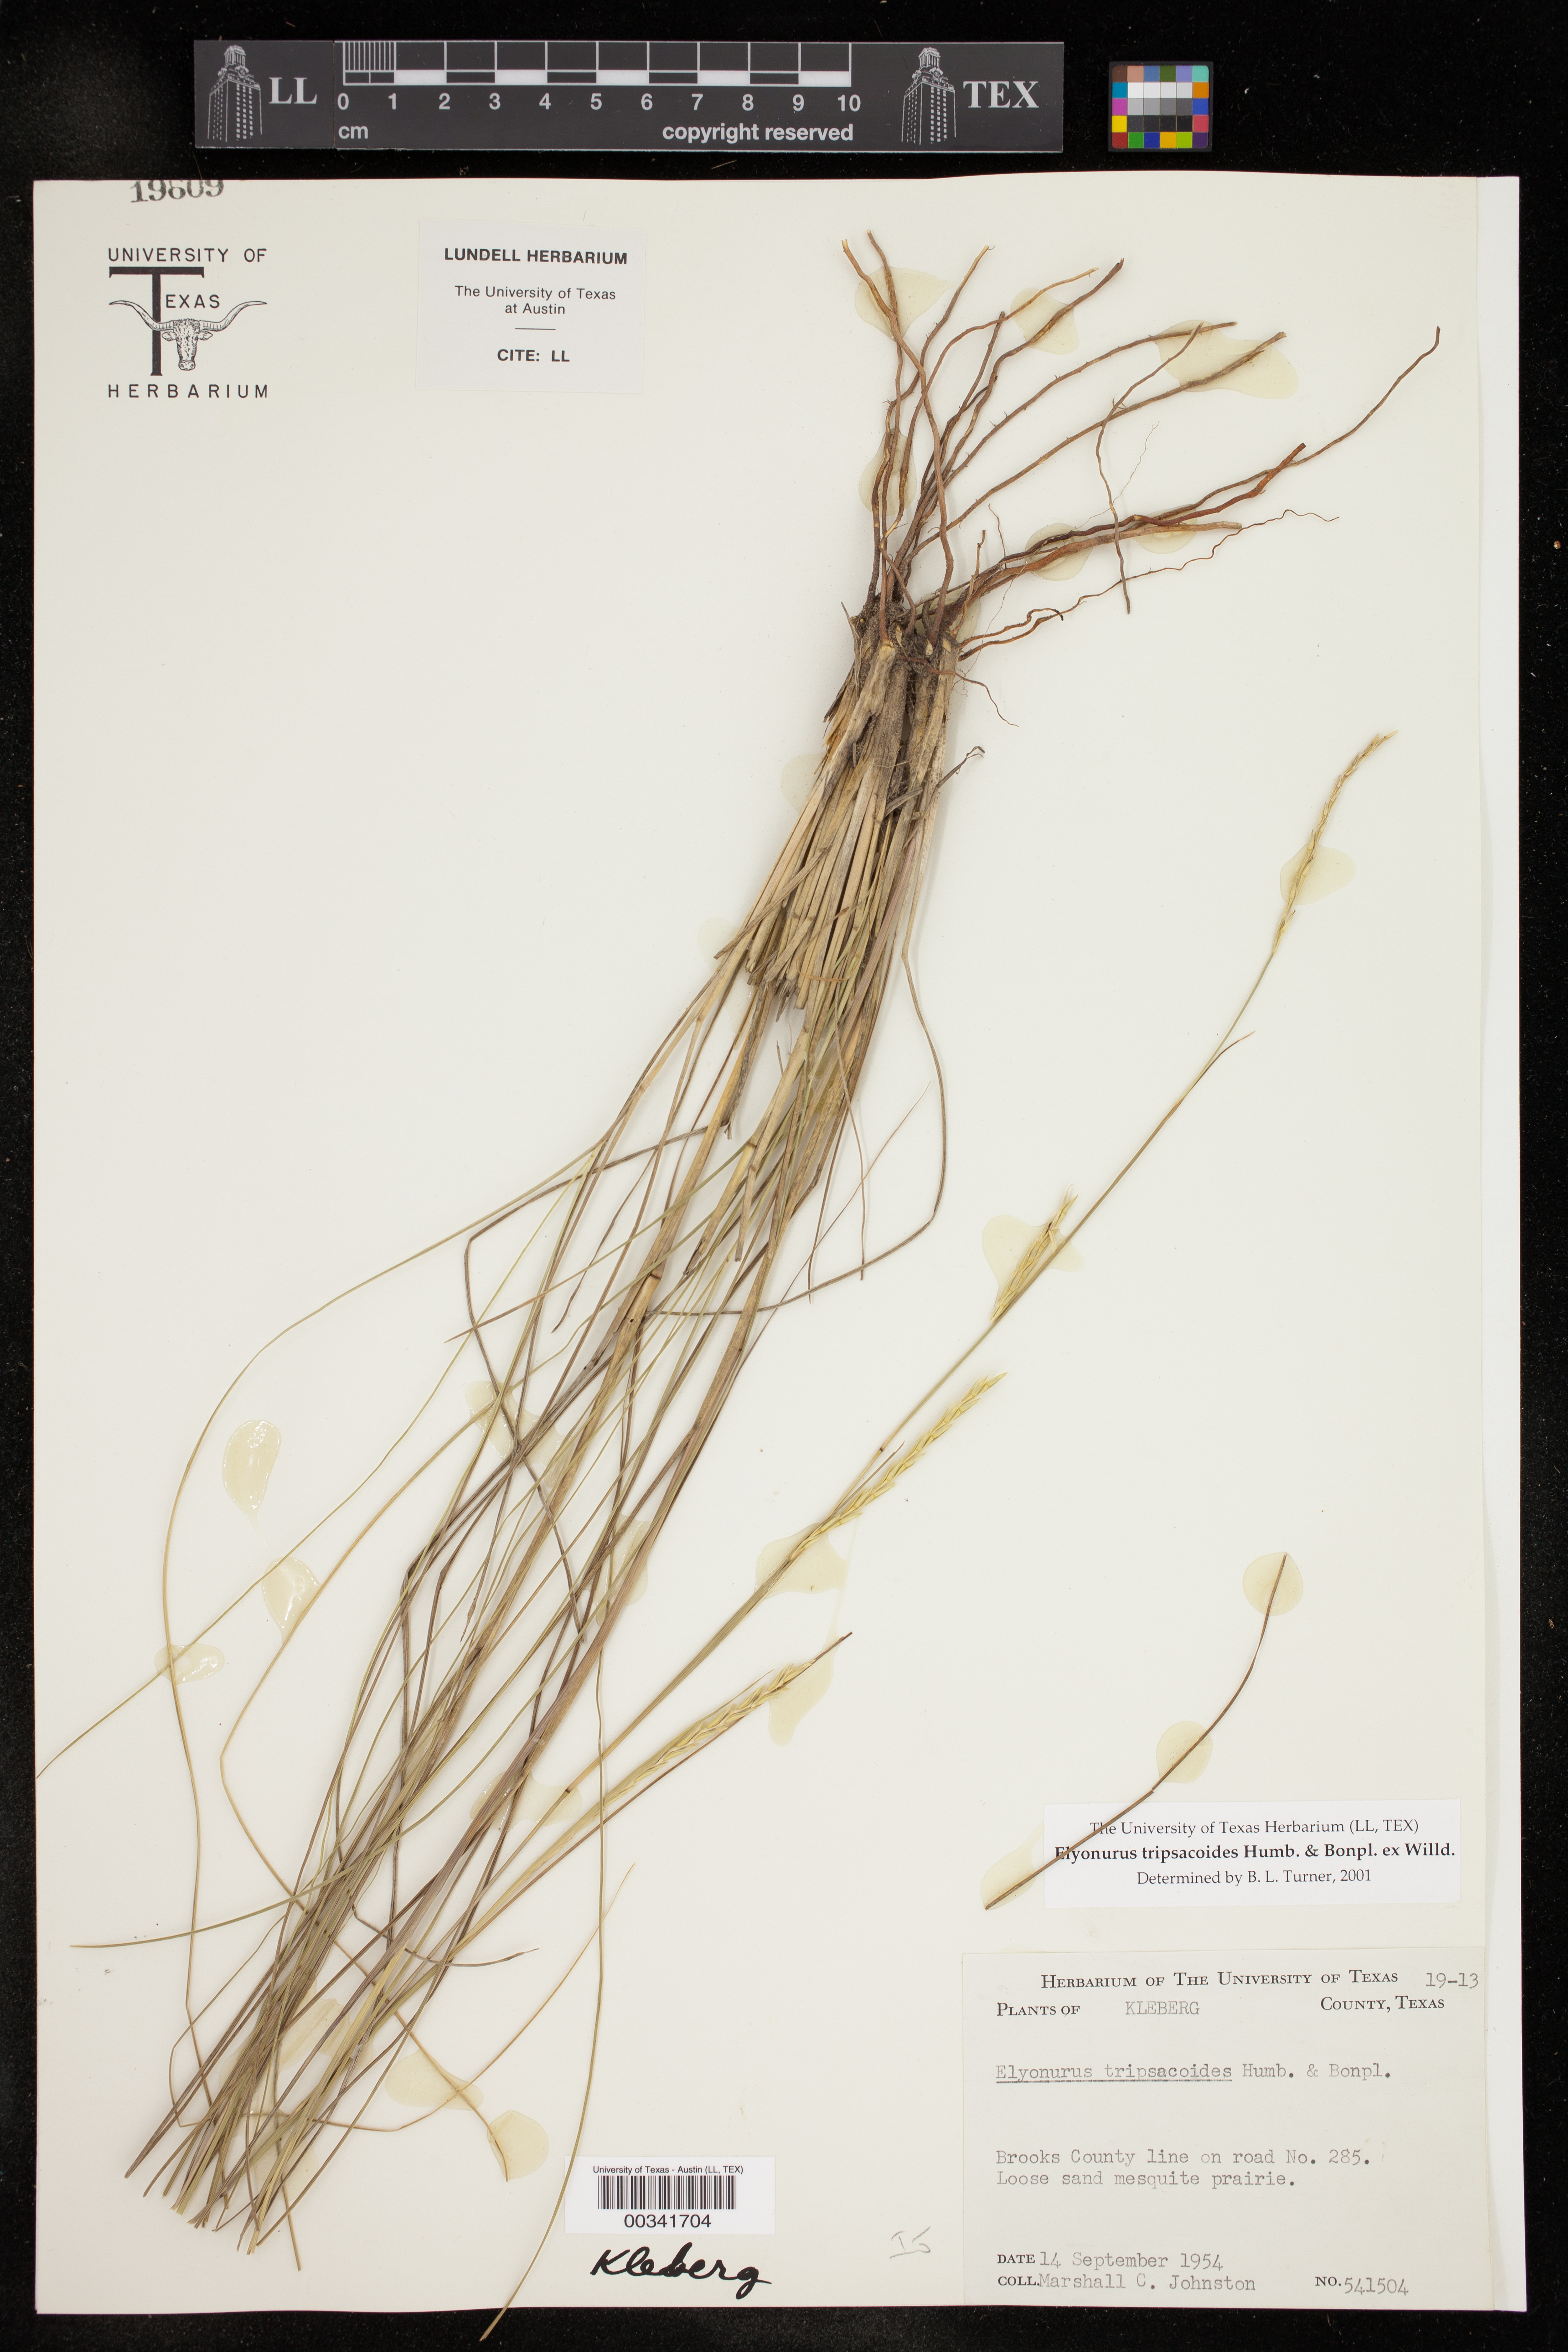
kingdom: Plantae
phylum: Tracheophyta
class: Liliopsida
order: Poales
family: Poaceae
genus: Elionurus
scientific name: Elionurus tripsacoides
